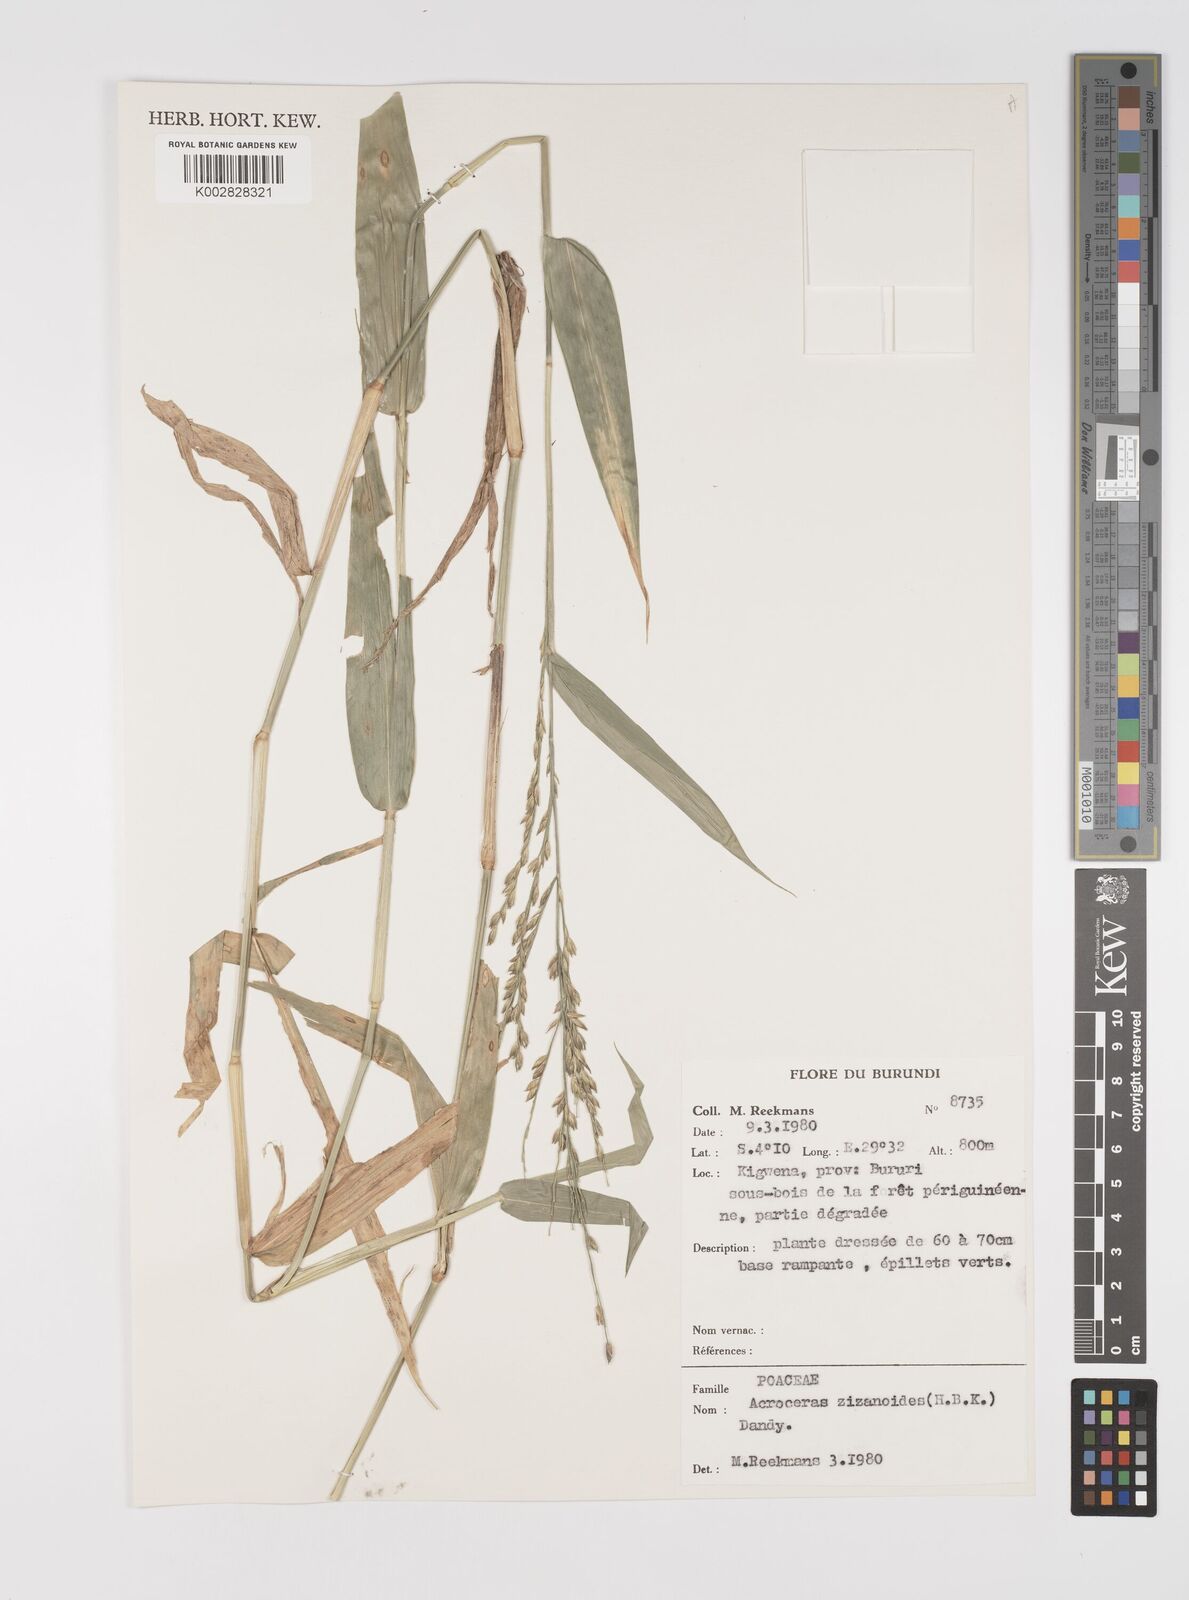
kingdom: Plantae
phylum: Tracheophyta
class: Liliopsida
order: Poales
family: Poaceae
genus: Acroceras
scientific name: Acroceras zizanioides
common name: Oat grass
